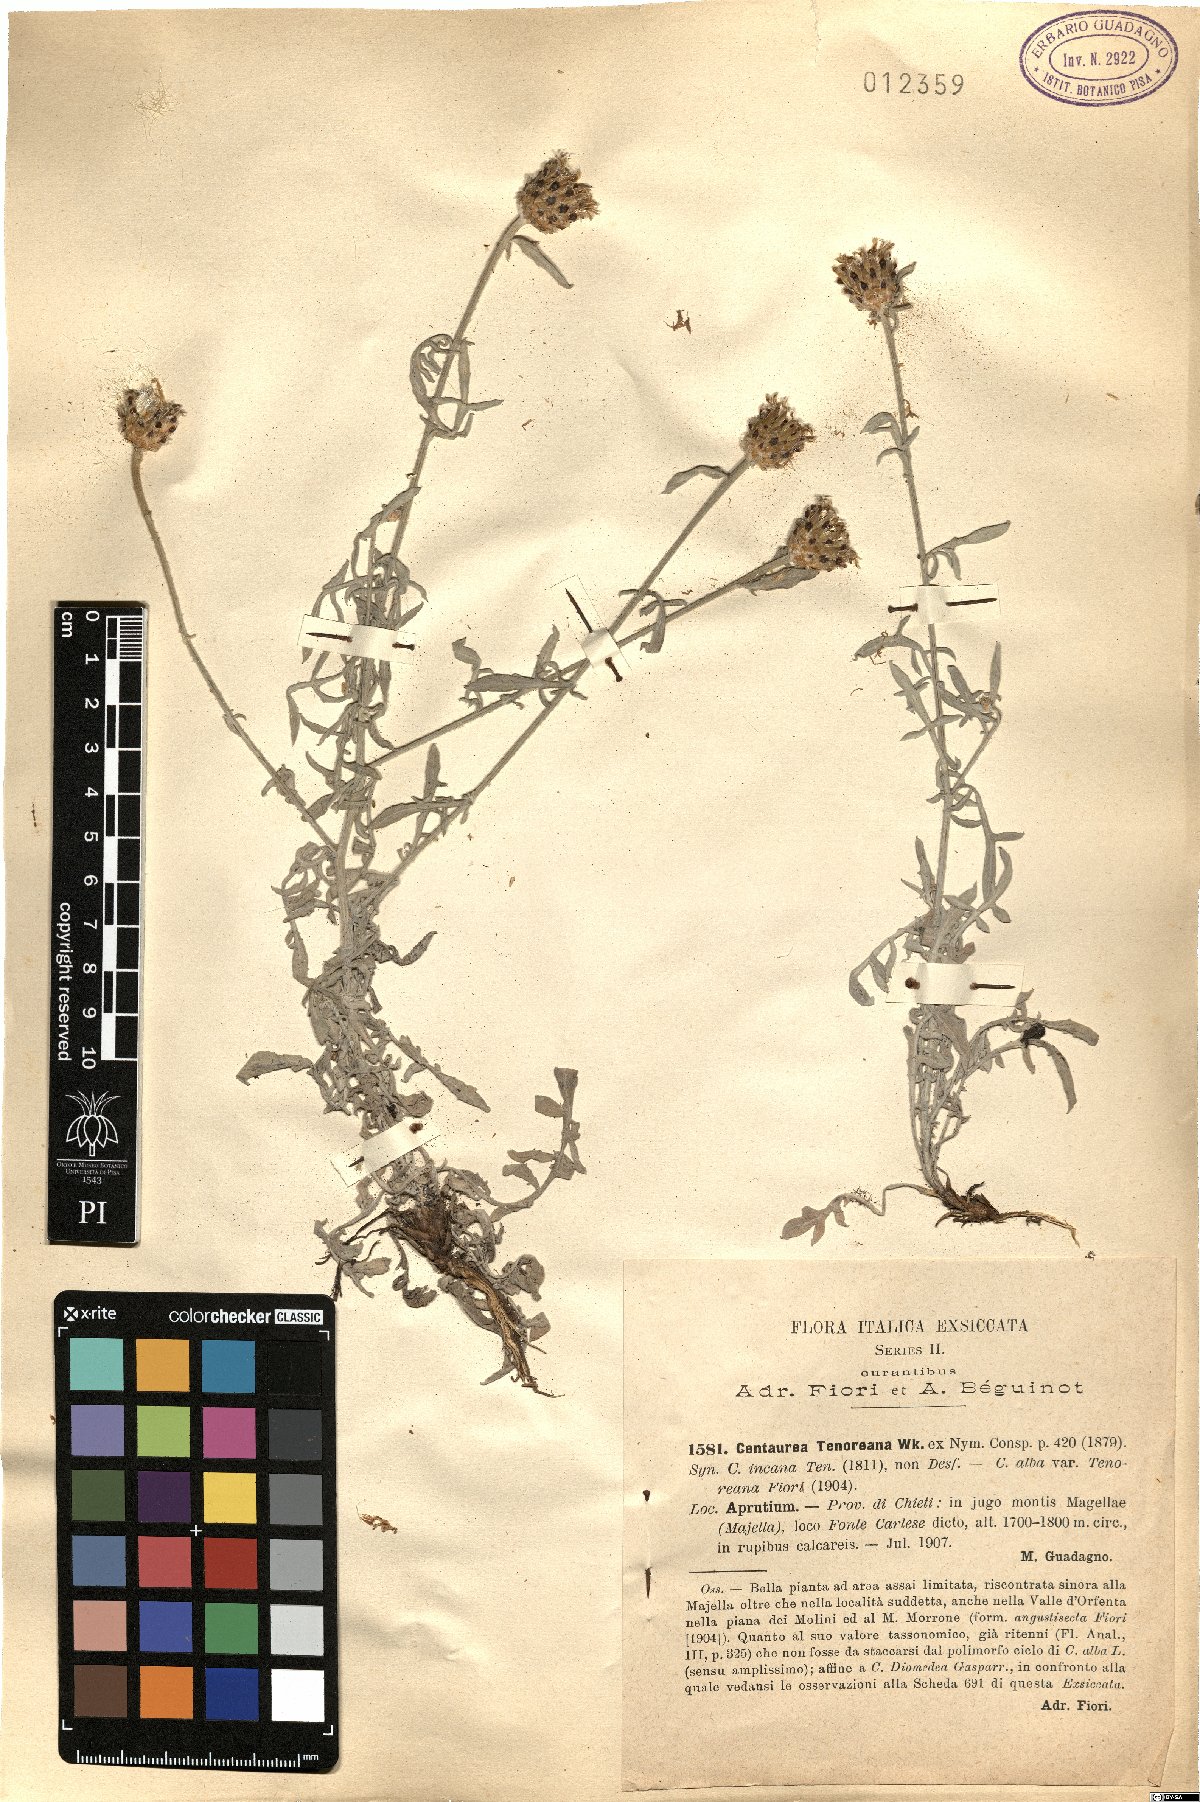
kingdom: Plantae
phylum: Tracheophyta
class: Magnoliopsida
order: Asterales
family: Asteraceae
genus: Centaurea
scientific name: Centaurea tenoreana
